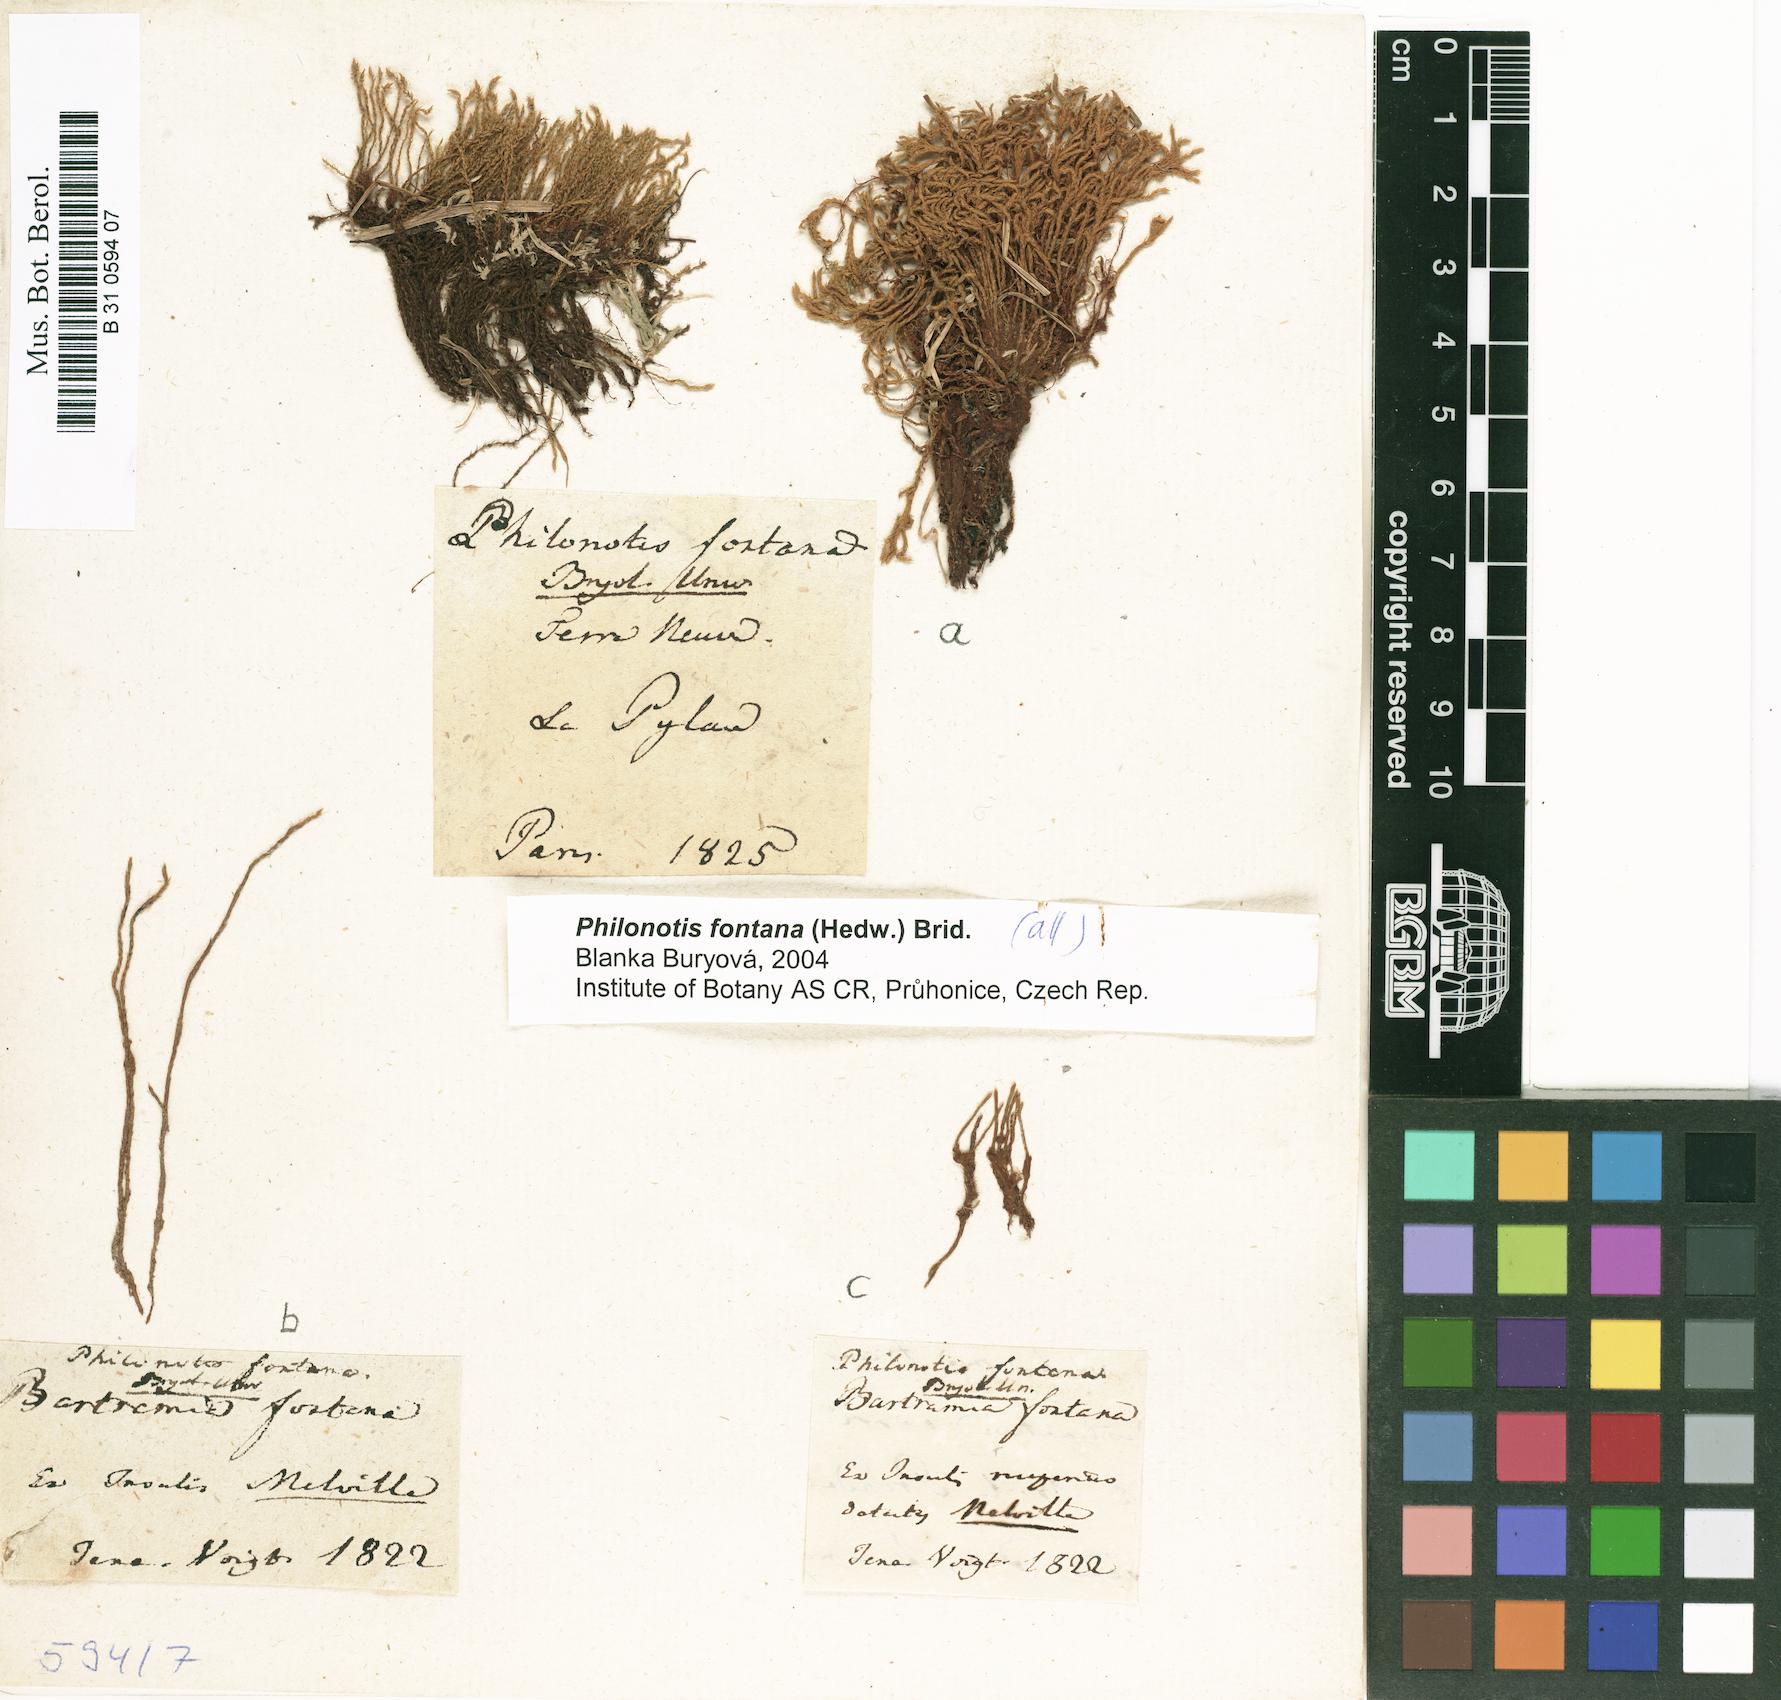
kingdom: Plantae
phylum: Bryophyta
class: Bryopsida
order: Bartramiales
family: Bartramiaceae
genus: Philonotis
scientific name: Philonotis fontana
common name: Fountain apple-moss
